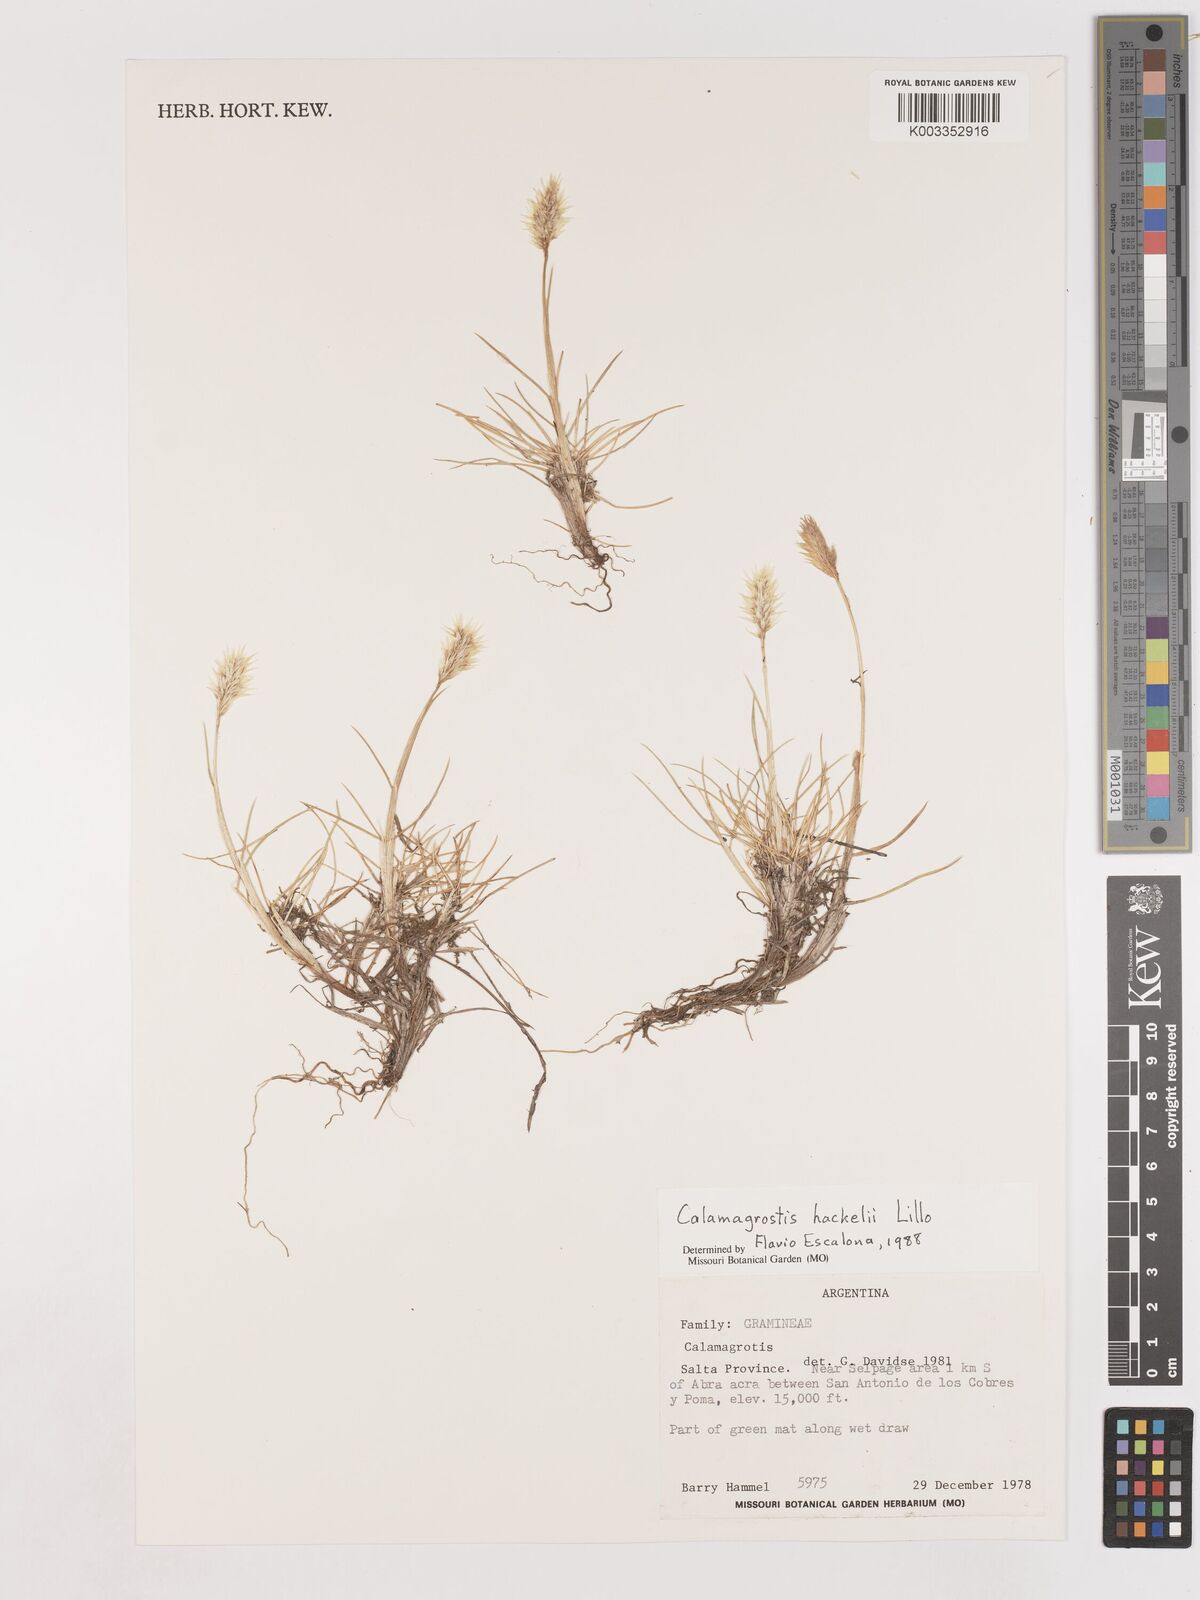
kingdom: Plantae
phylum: Tracheophyta
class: Liliopsida
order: Poales
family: Poaceae
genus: Deschampsia
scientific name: Deschampsia hackelii
